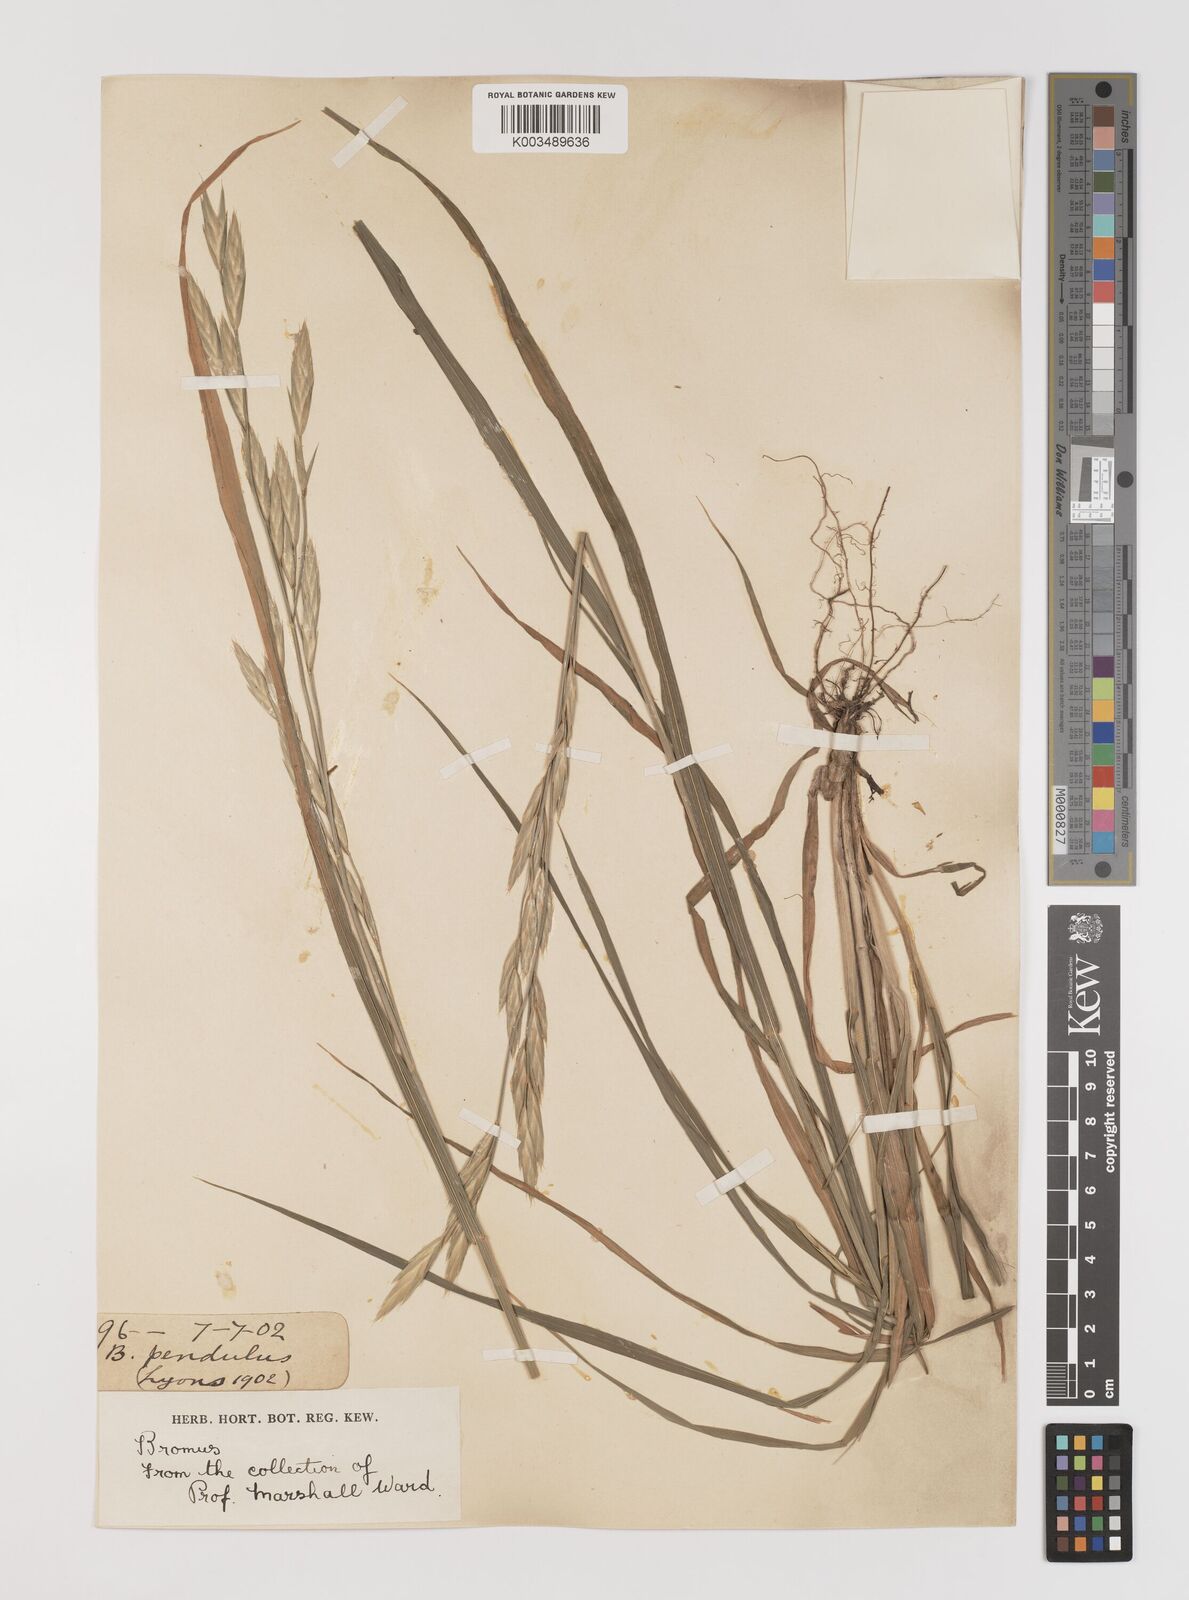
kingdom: Plantae
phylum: Tracheophyta
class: Liliopsida
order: Poales
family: Poaceae
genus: Bromus
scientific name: Bromus catharticus
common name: Rescuegrass
